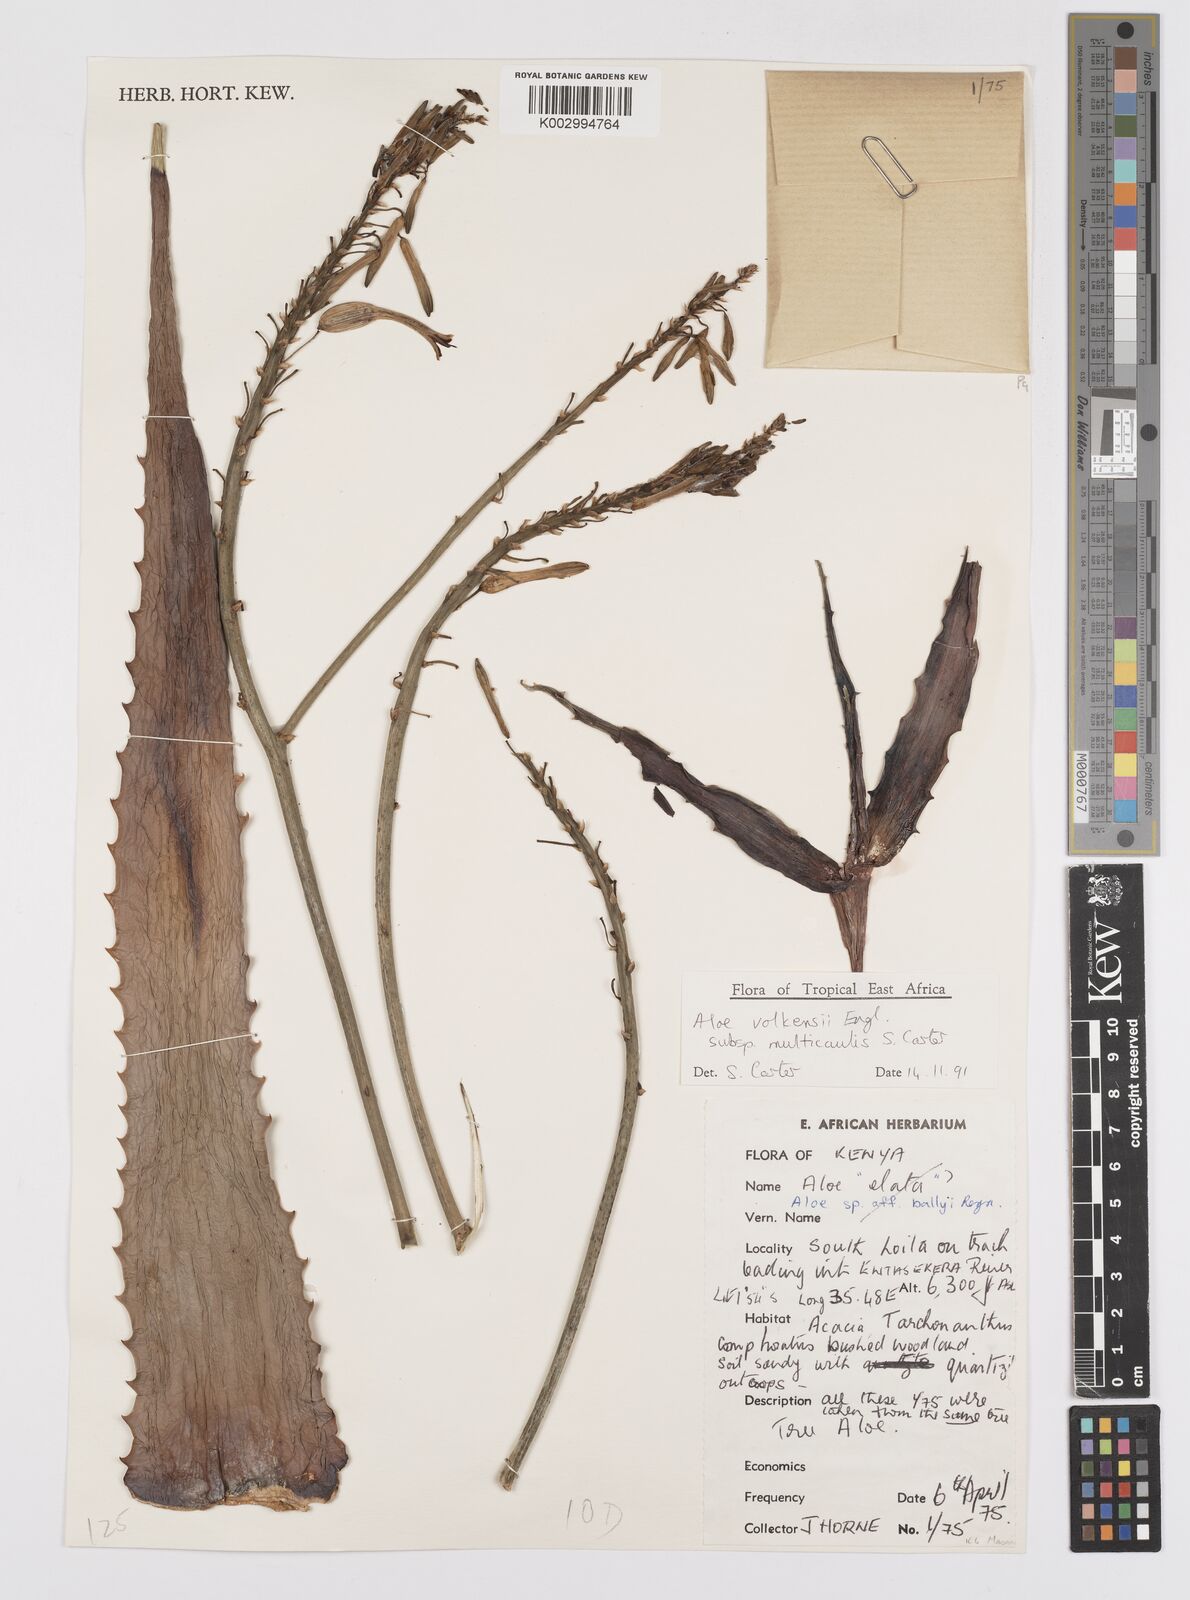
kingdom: Plantae
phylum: Tracheophyta
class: Liliopsida
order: Asparagales
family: Asphodelaceae
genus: Aloe
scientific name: Aloe volkensii
